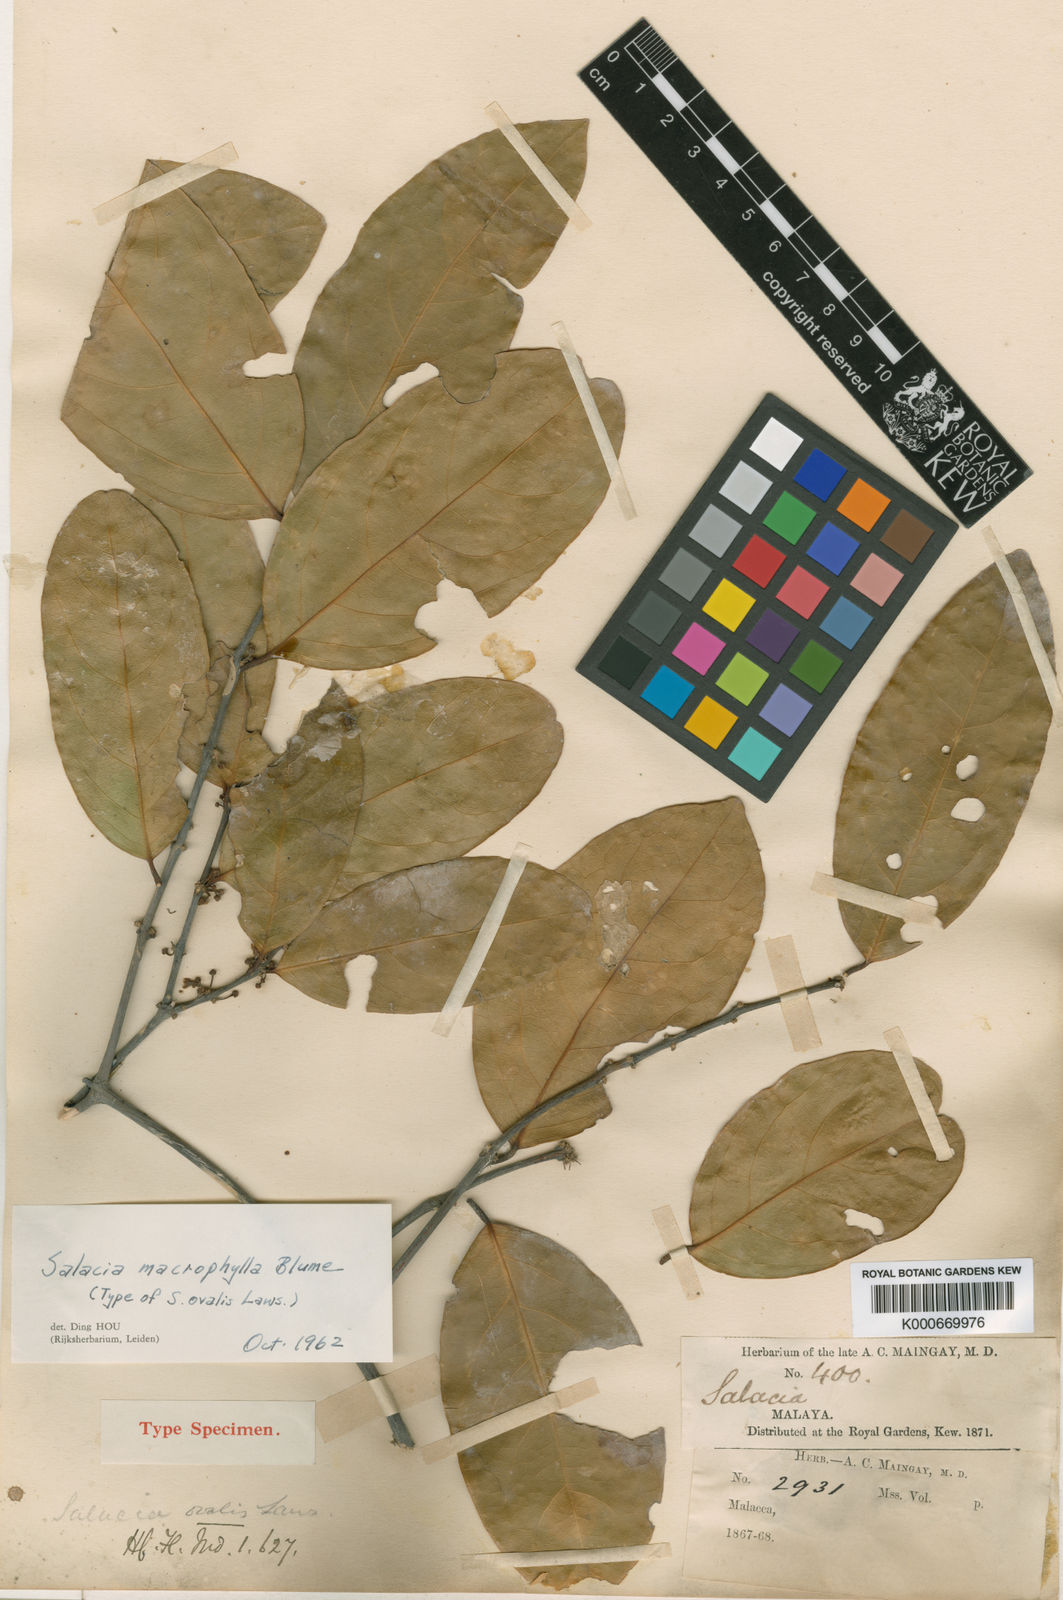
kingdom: Plantae
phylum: Tracheophyta
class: Magnoliopsida
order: Celastrales
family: Celastraceae
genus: Salacia
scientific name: Salacia macrophylla
